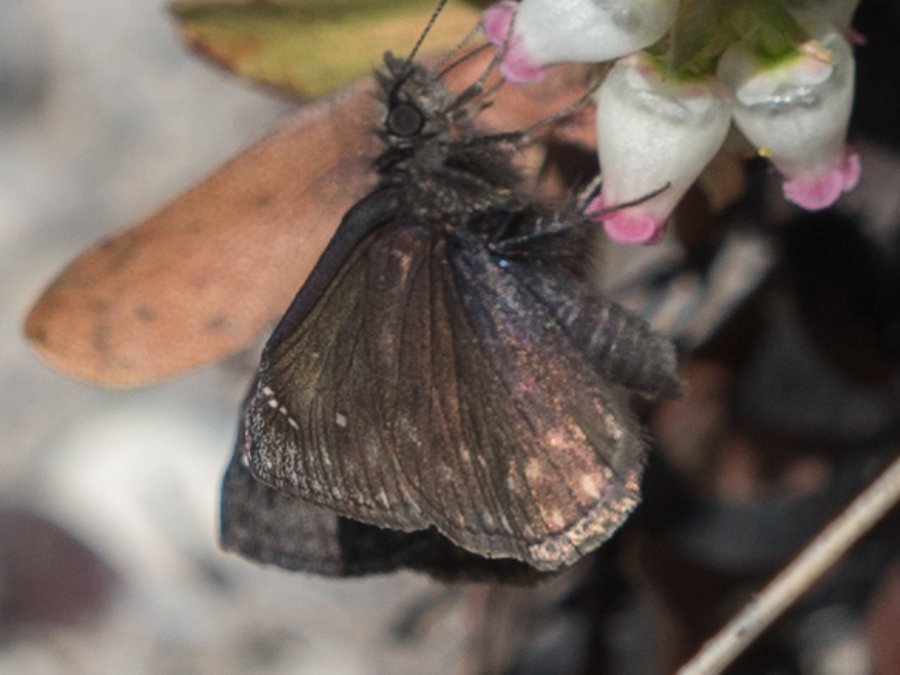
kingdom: Animalia
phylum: Arthropoda
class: Insecta
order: Lepidoptera
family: Hesperiidae
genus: Gesta
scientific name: Gesta
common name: Persius Duskywing
